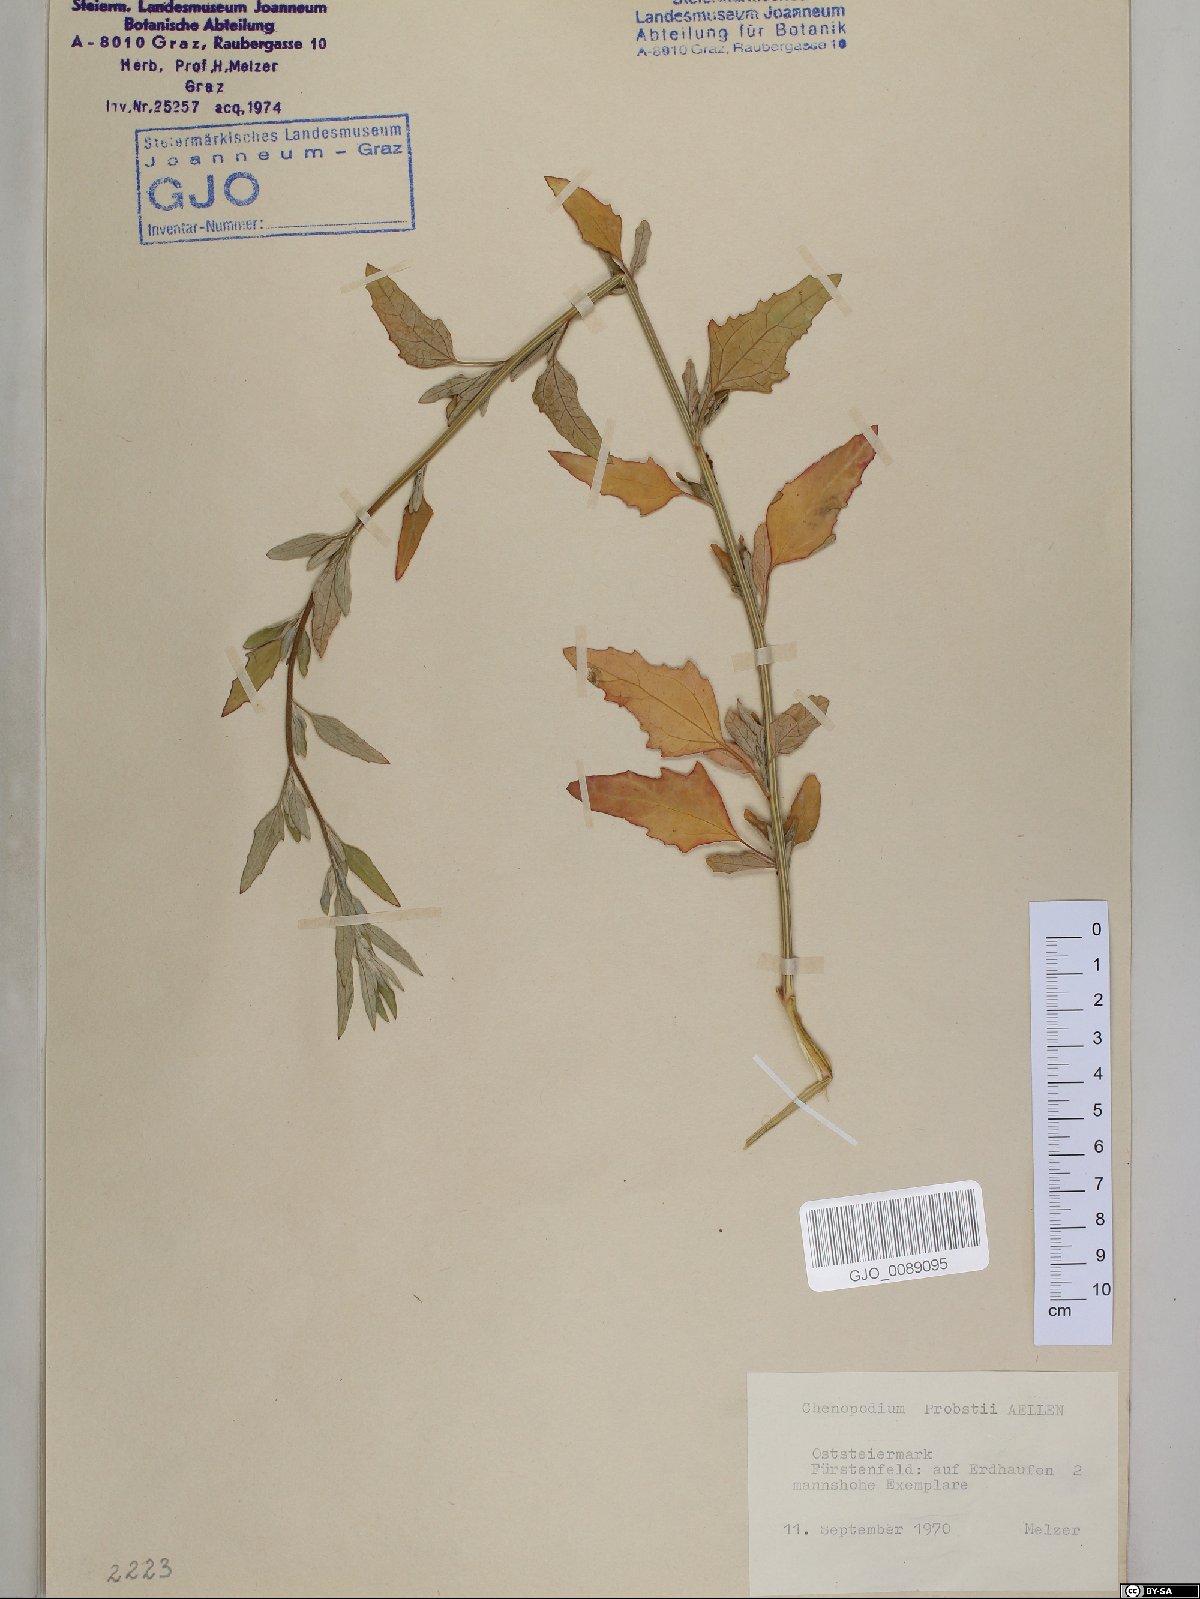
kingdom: Plantae
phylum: Tracheophyta
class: Magnoliopsida
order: Caryophyllales
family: Amaranthaceae
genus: Chenopodium
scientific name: Chenopodium probstii
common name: Probst's goosefoot
